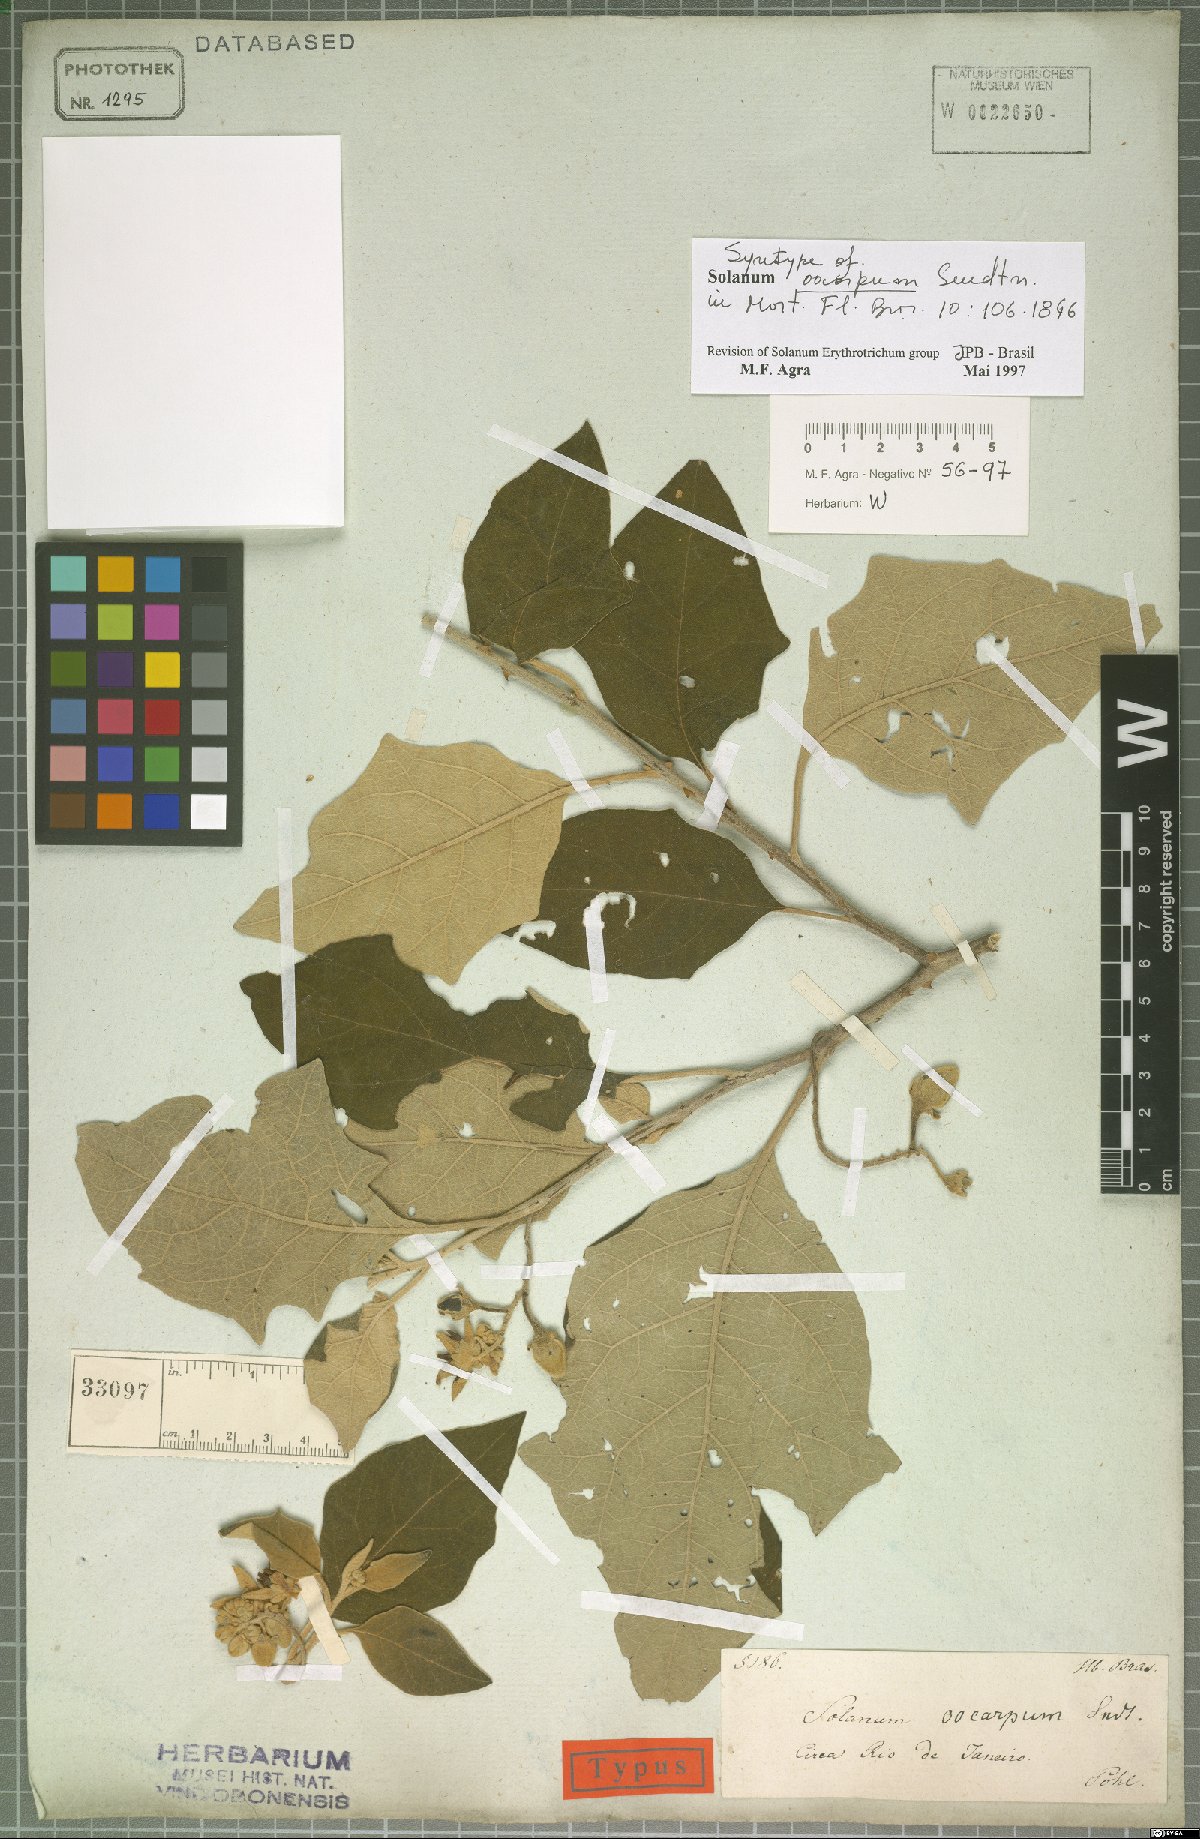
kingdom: Plantae
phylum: Tracheophyta
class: Magnoliopsida
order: Solanales
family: Solanaceae
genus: Solanum
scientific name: Solanum oocarpum
